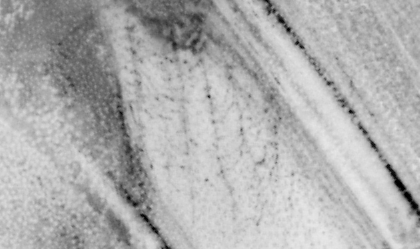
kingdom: Animalia
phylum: Chordata
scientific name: Chordata
